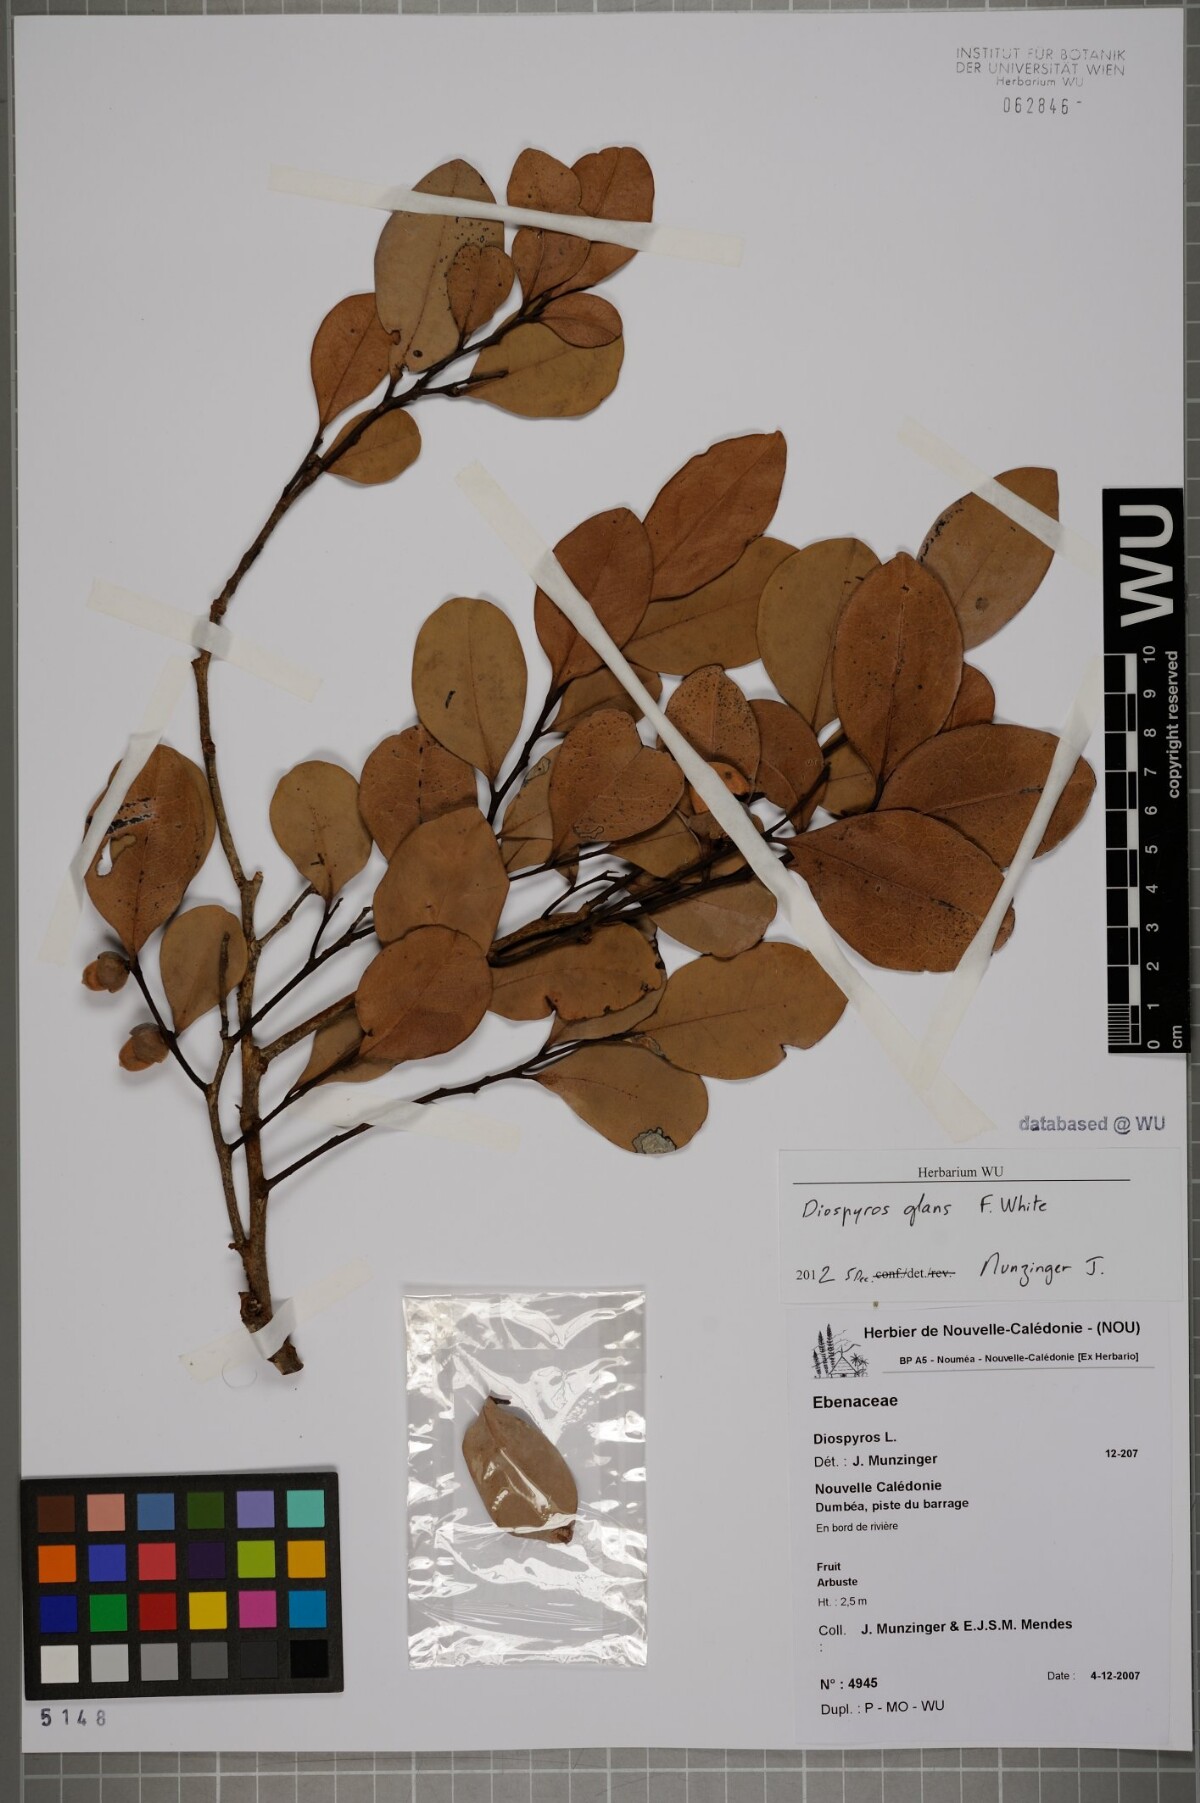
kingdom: Plantae
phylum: Tracheophyta
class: Magnoliopsida
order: Ericales
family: Ebenaceae
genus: Diospyros
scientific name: Diospyros glans
